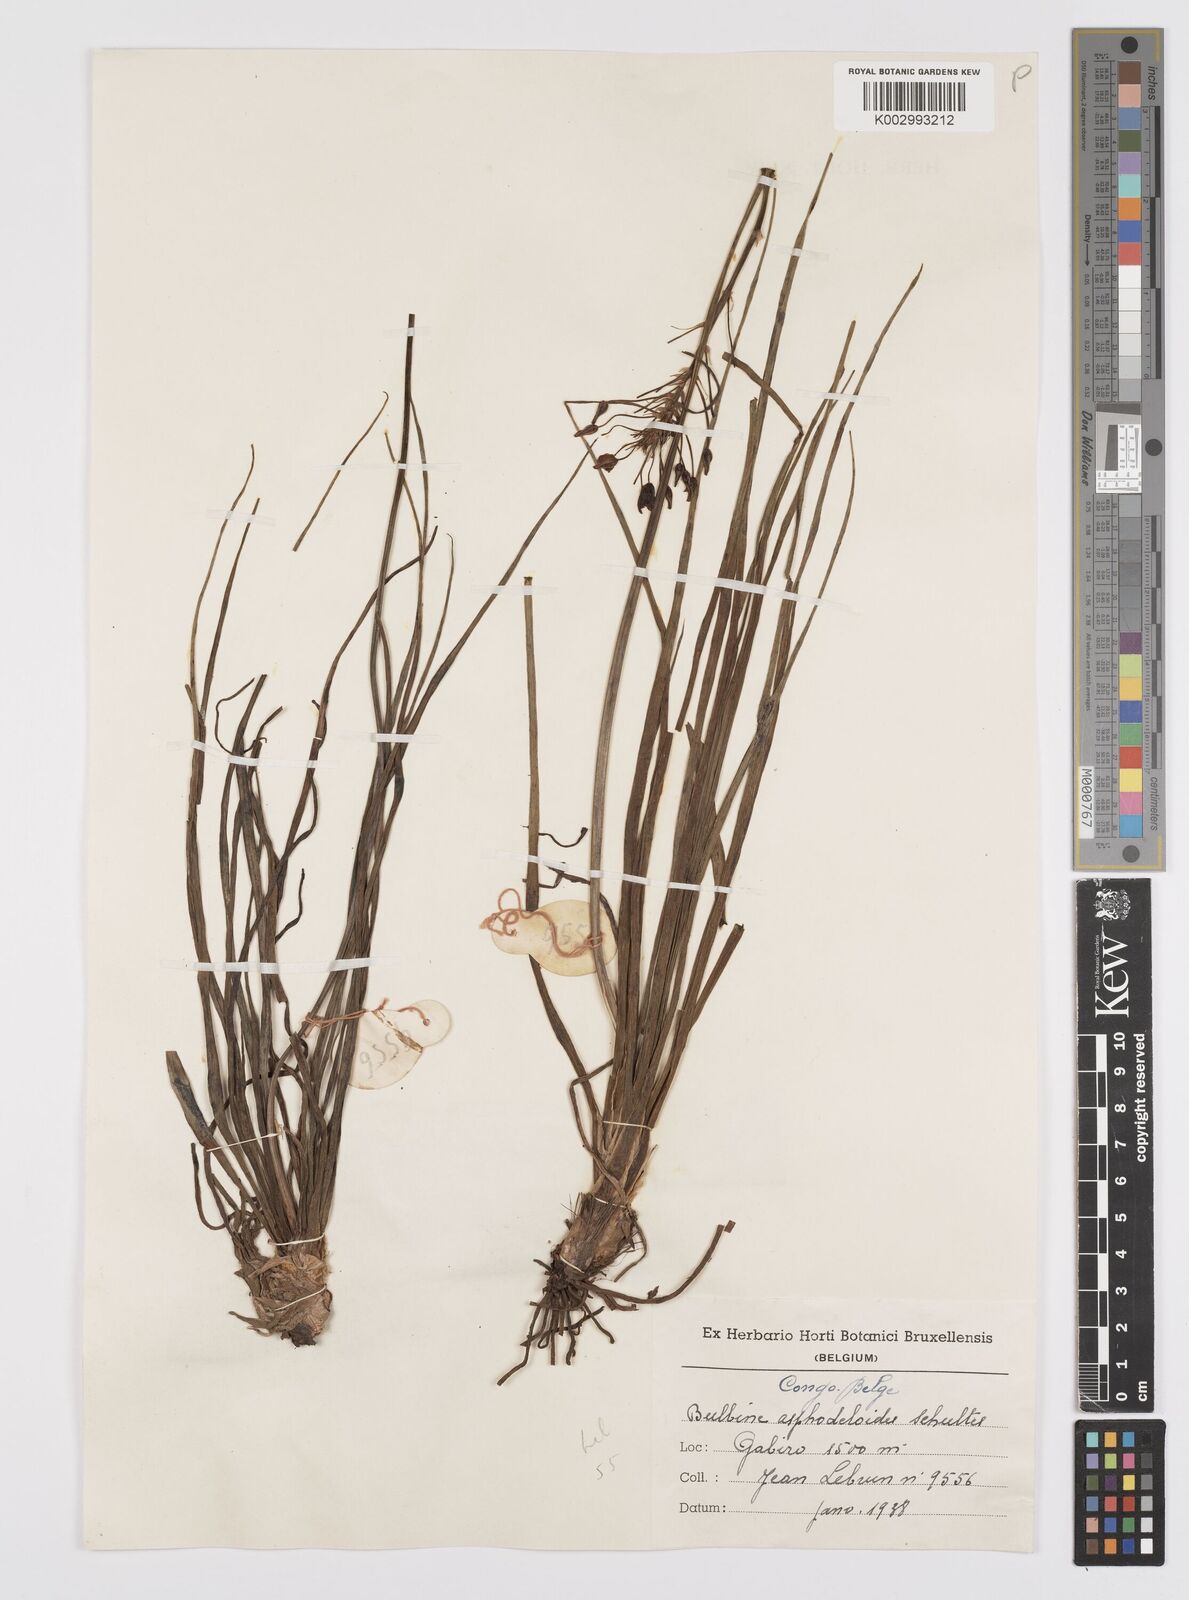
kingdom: Plantae
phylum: Tracheophyta
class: Liliopsida
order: Asparagales
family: Asphodelaceae
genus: Bulbine
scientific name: Bulbine abyssinica
